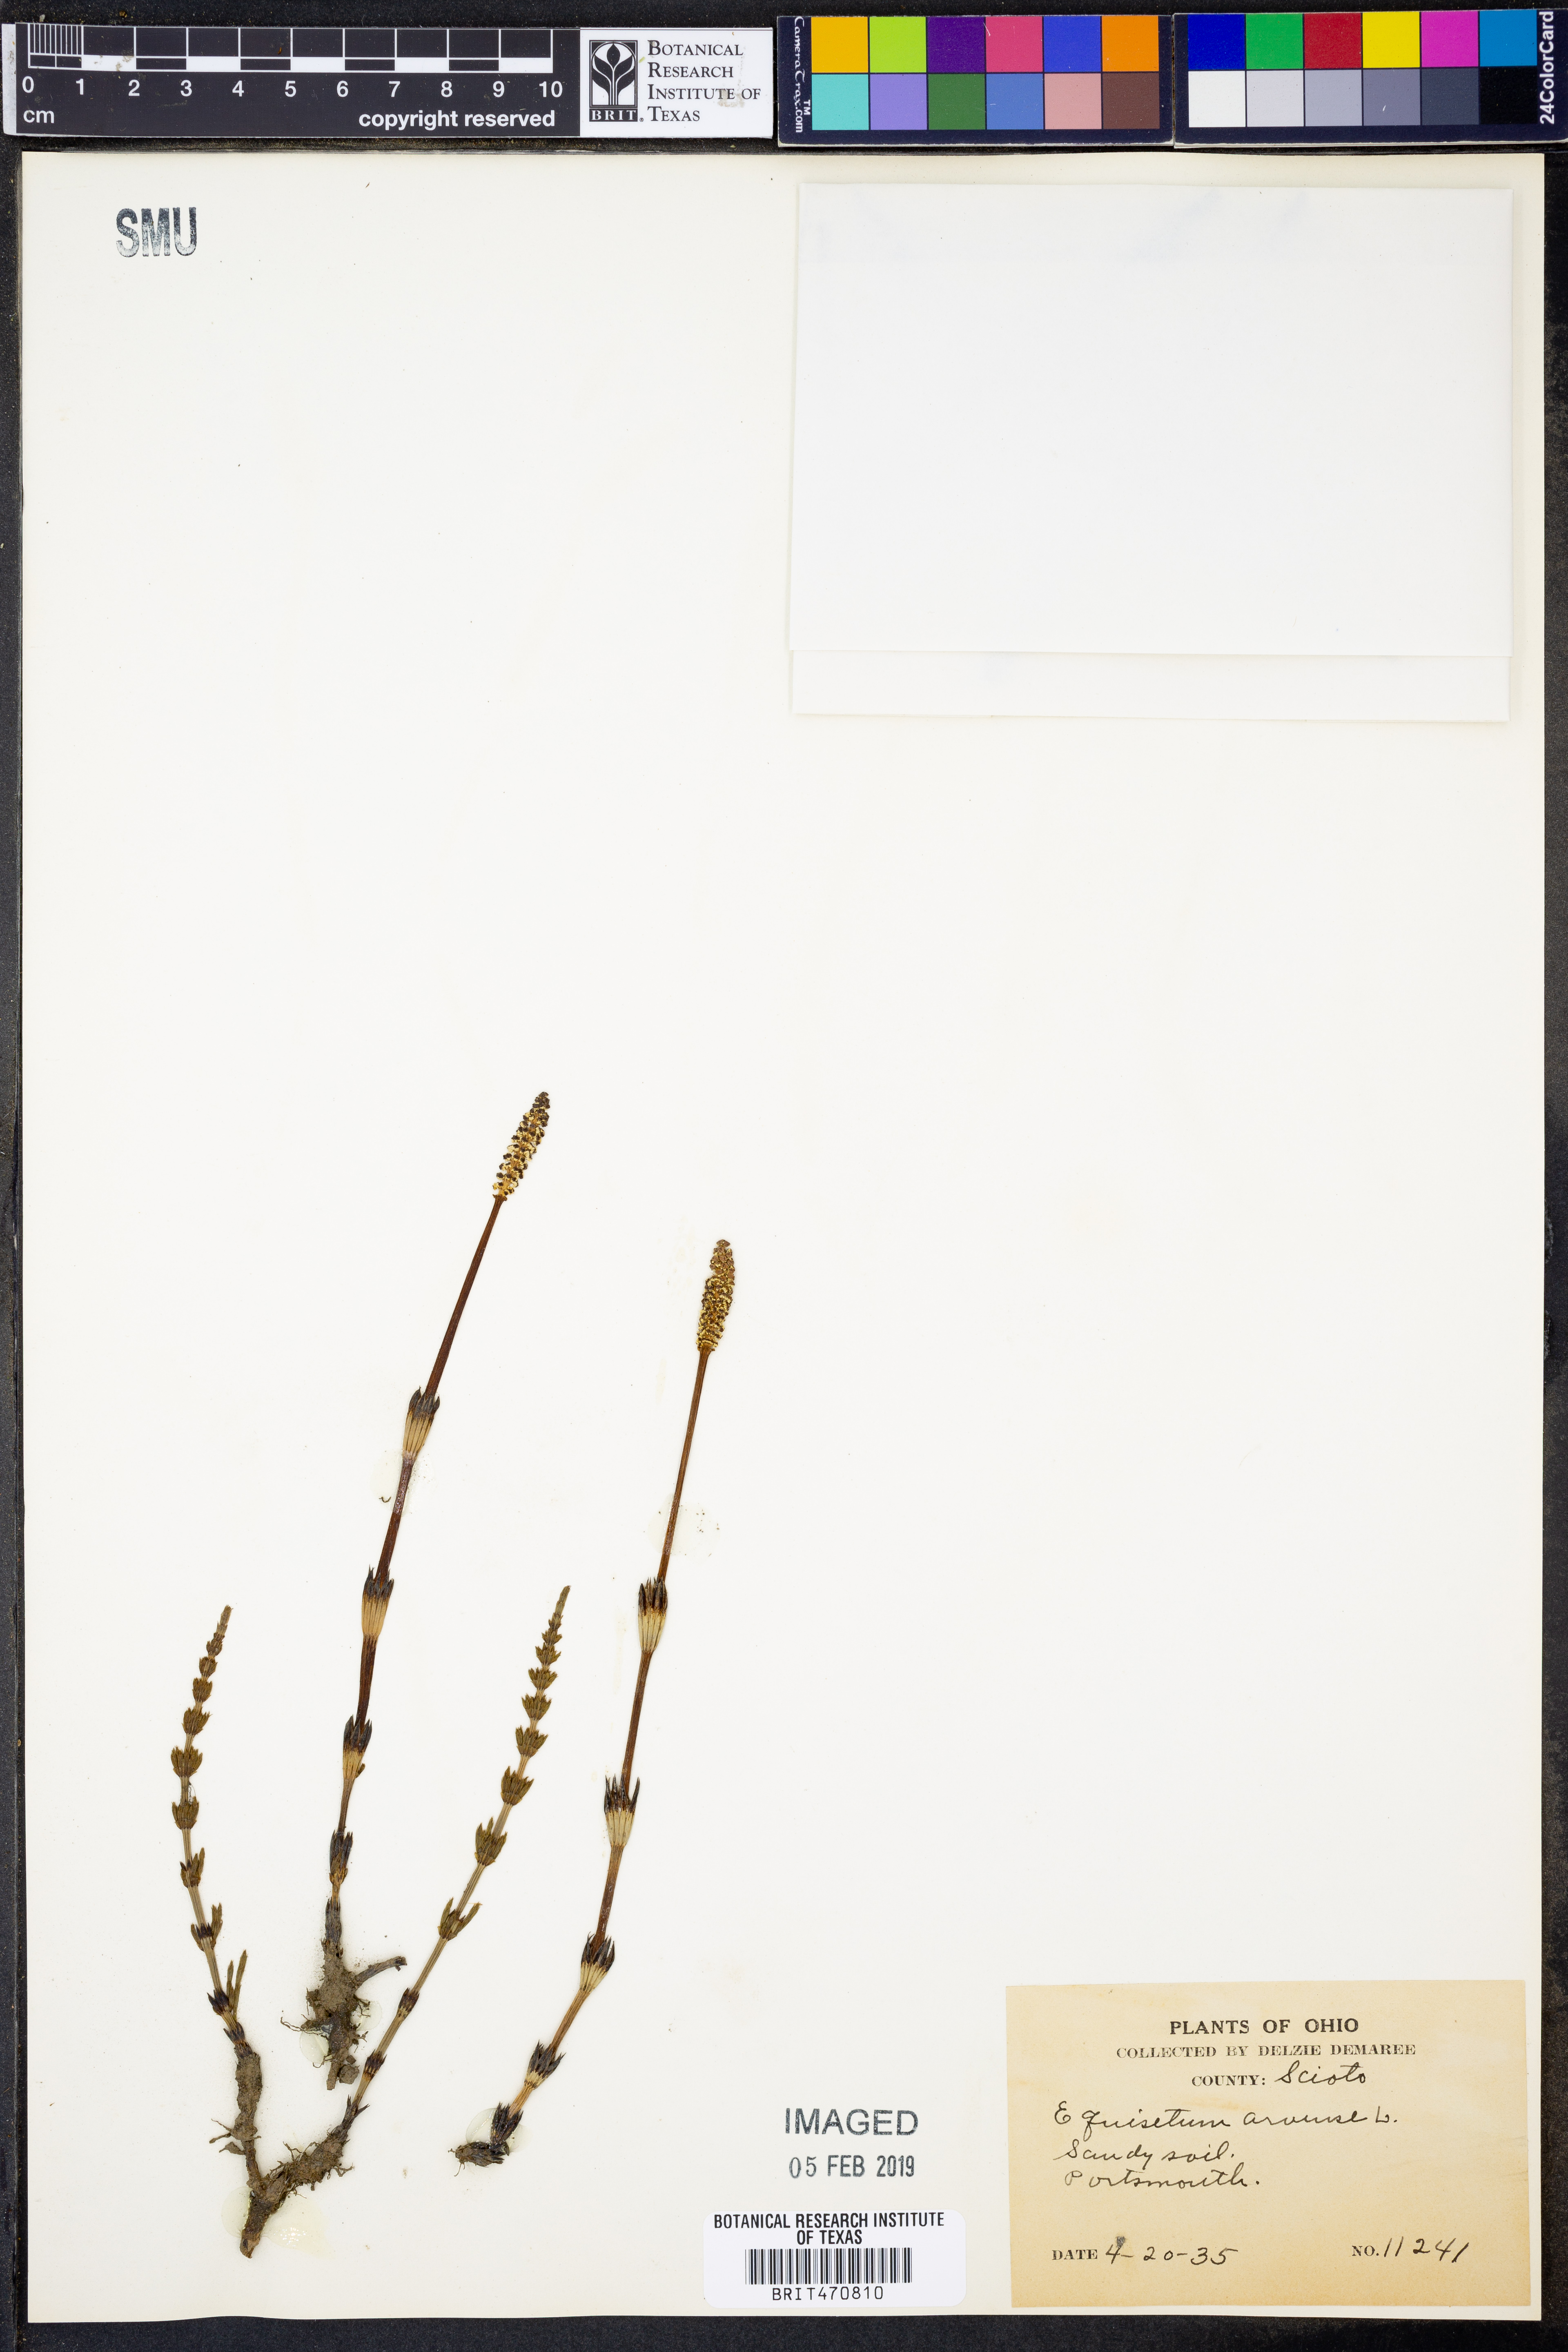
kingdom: Plantae
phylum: Tracheophyta
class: Polypodiopsida
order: Equisetales
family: Equisetaceae
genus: Equisetum
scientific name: Equisetum arvense
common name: Field horsetail
